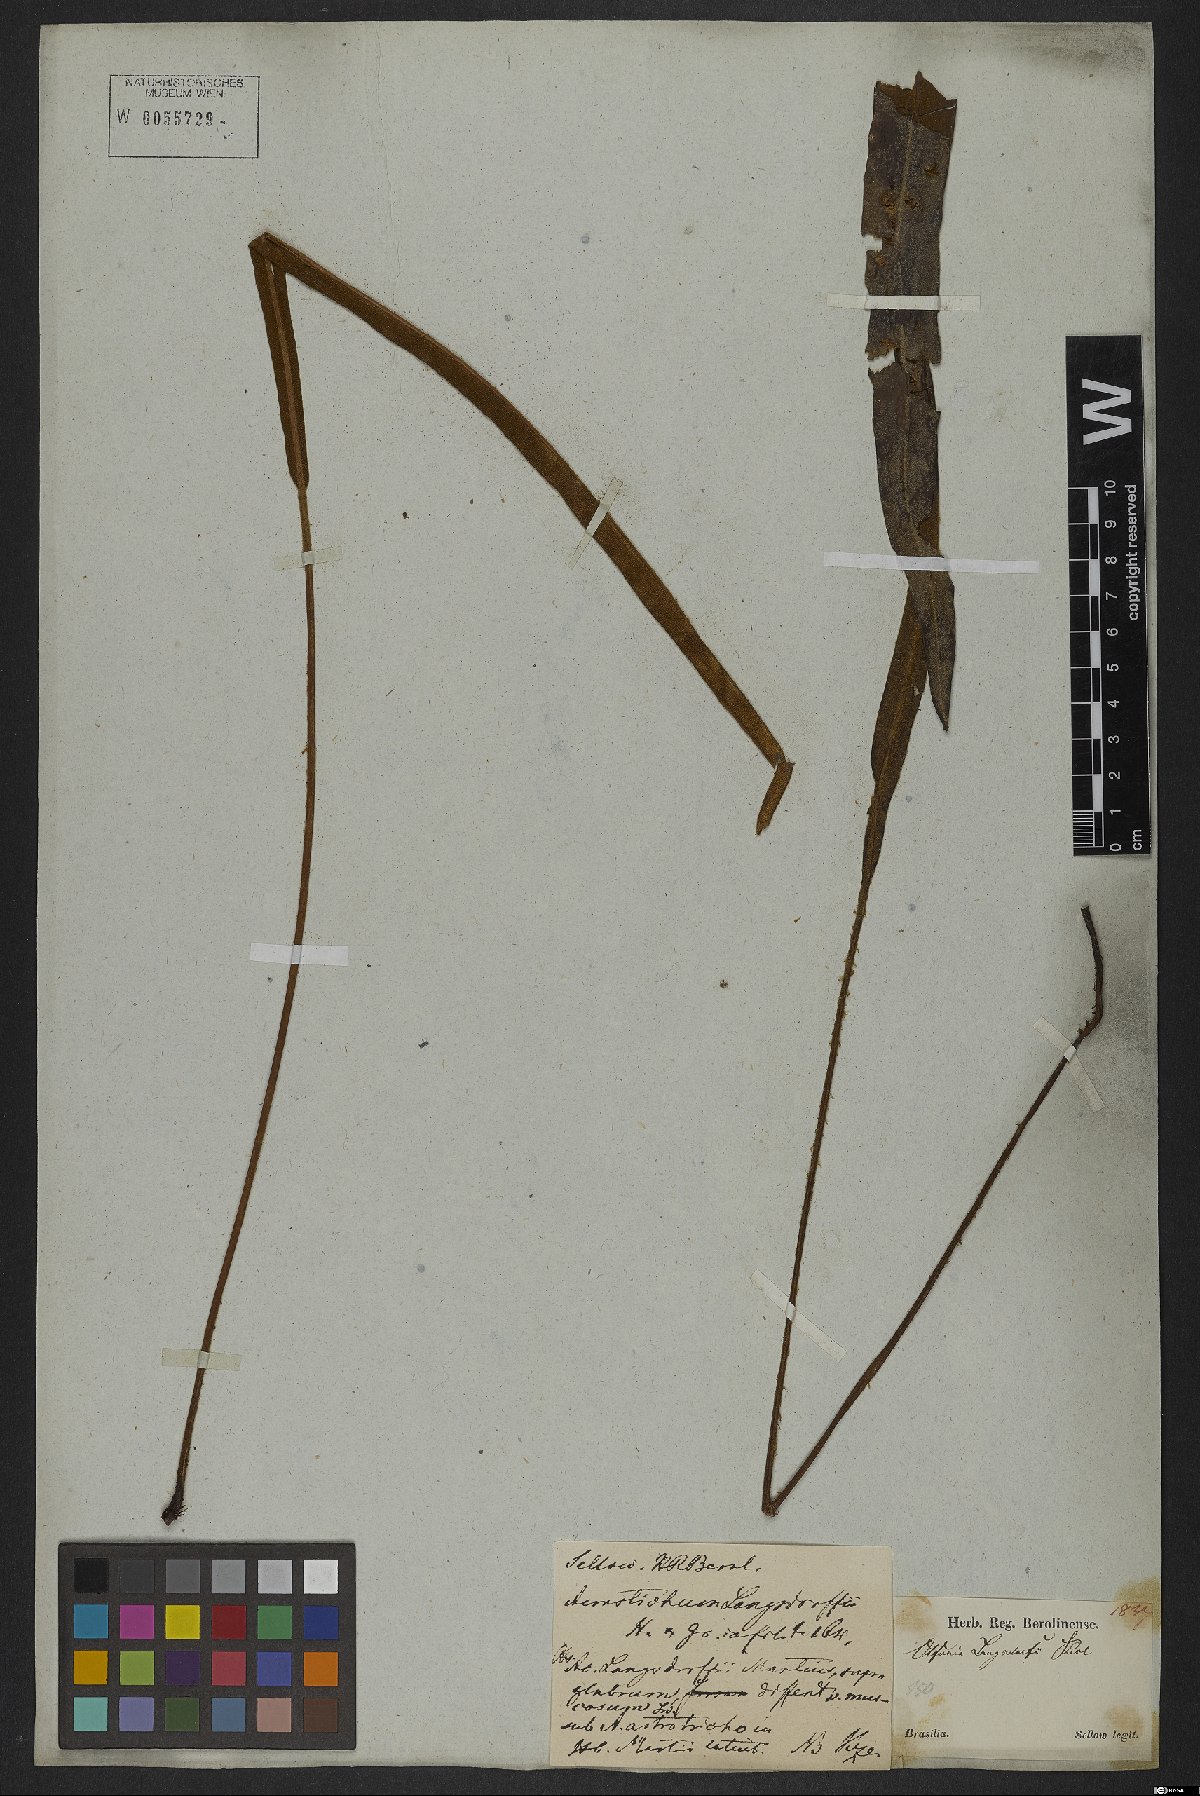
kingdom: Plantae
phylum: Tracheophyta
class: Polypodiopsida
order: Polypodiales
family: Dryopteridaceae
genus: Elaphoglossum
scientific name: Elaphoglossum langsdorffii
